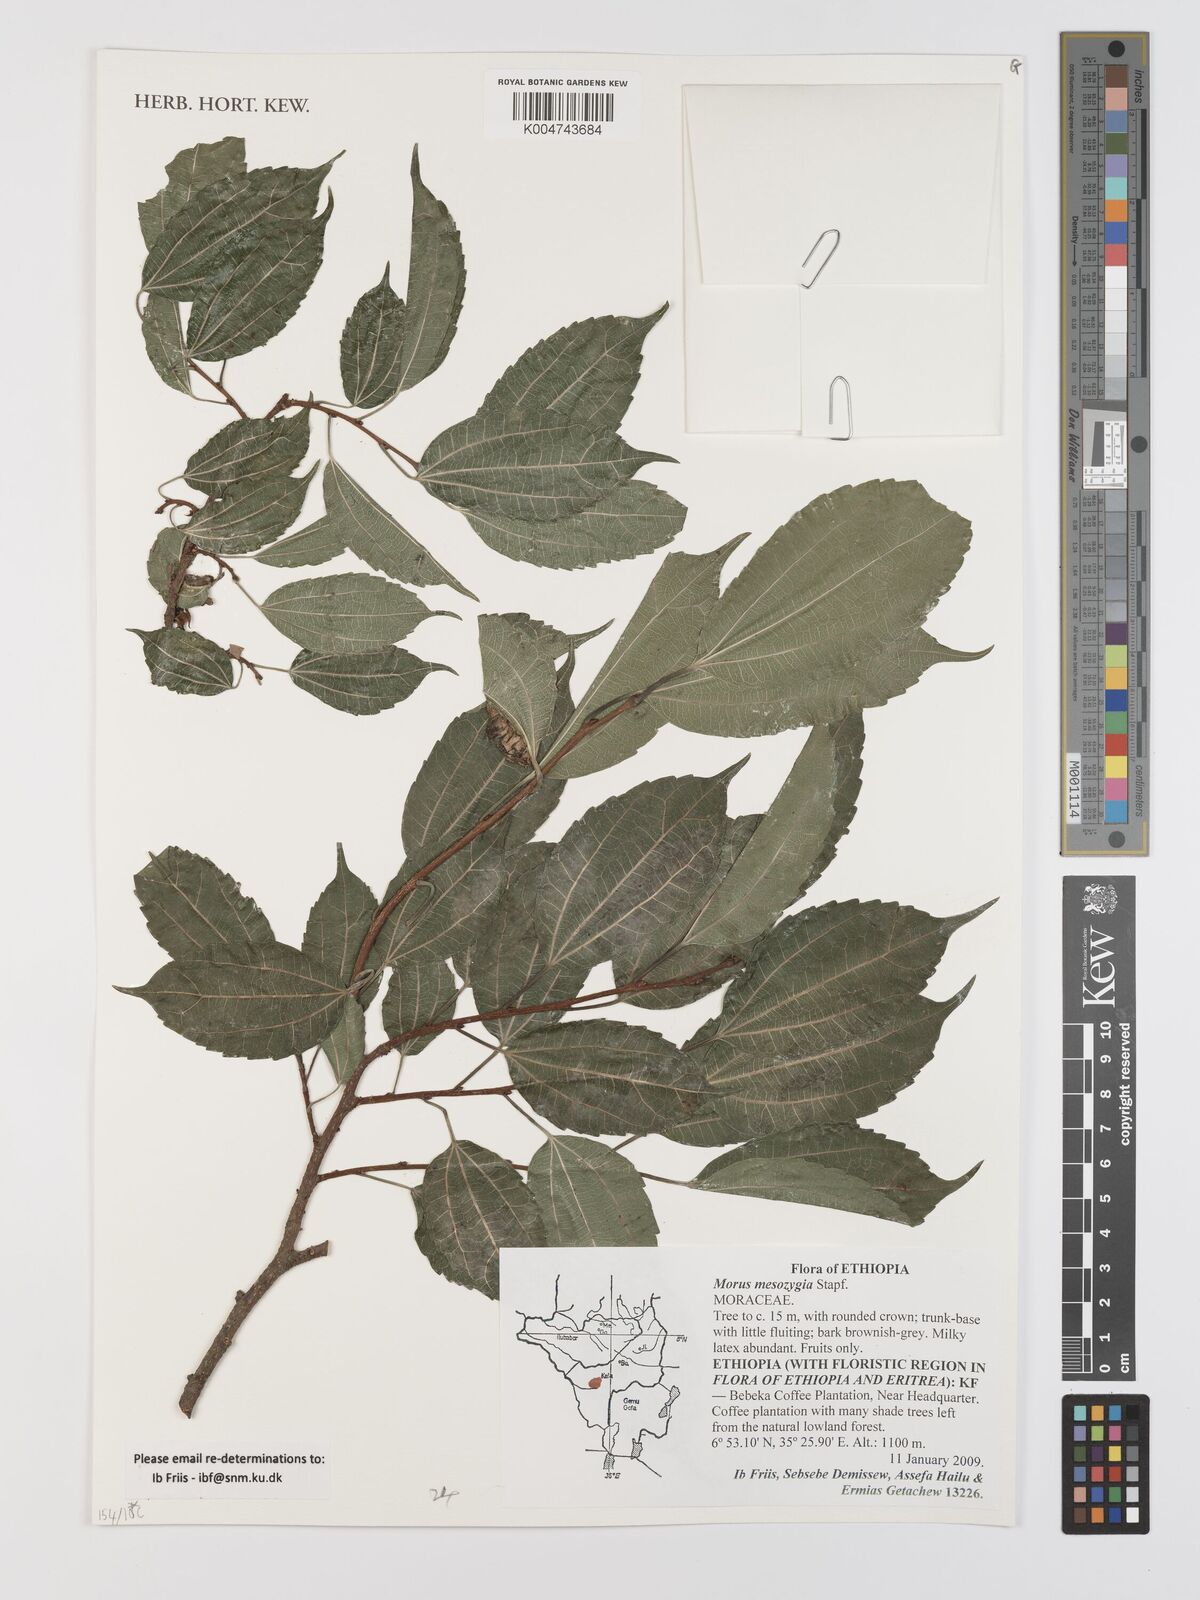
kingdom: Plantae
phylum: Tracheophyta
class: Magnoliopsida
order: Rosales
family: Moraceae
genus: Afromorus
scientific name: Afromorus mesozygia
